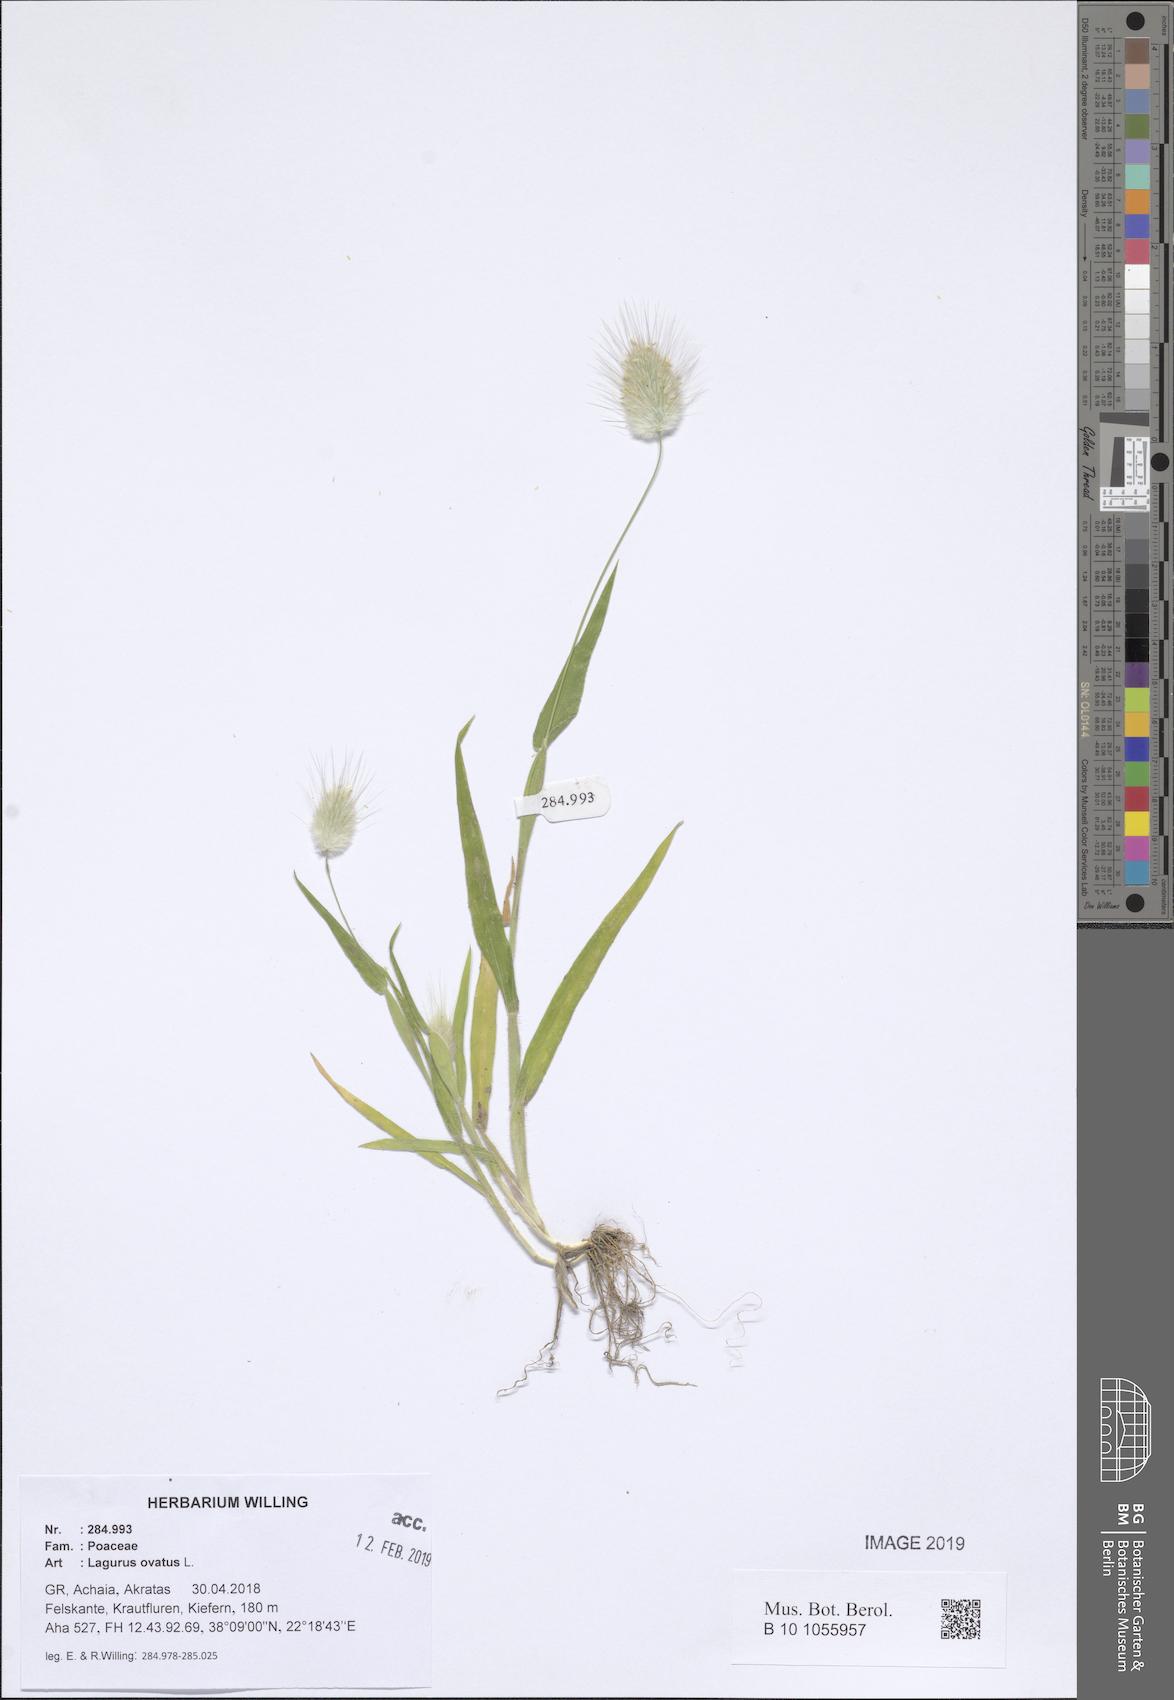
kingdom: Plantae
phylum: Tracheophyta
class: Liliopsida
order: Poales
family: Poaceae
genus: Lagurus
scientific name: Lagurus ovatus
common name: Hare's-tail
